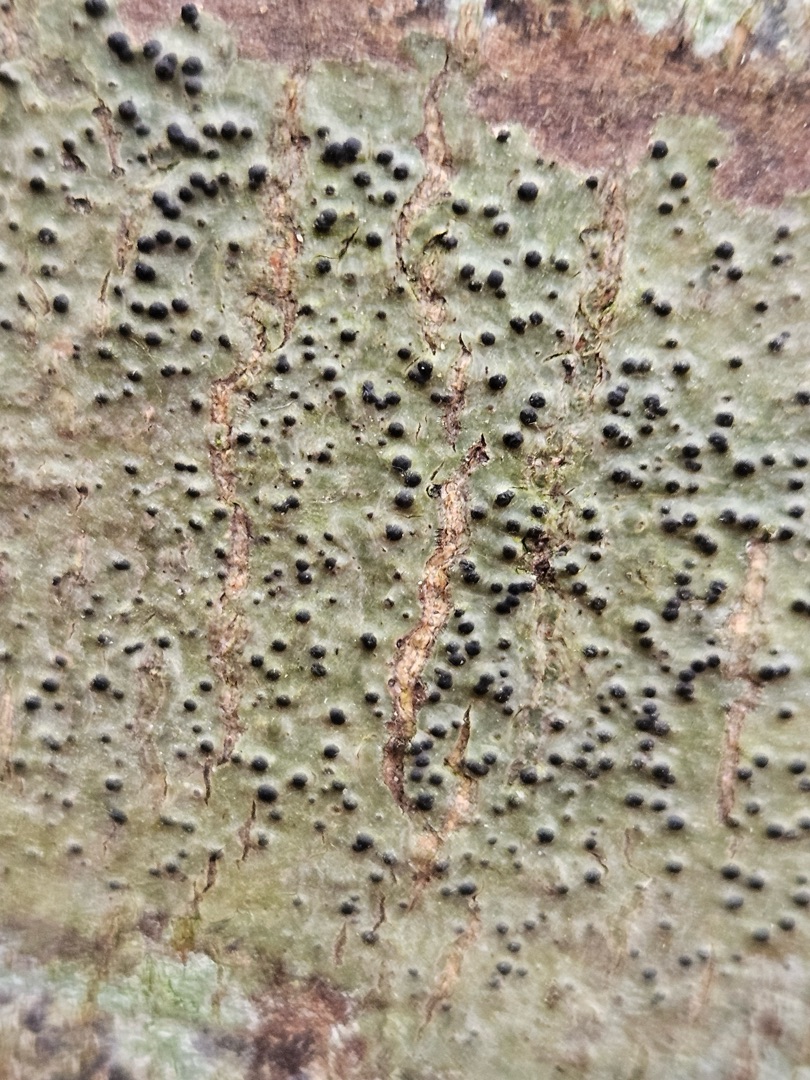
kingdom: Fungi
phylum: Ascomycota
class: Eurotiomycetes
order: Pyrenulales
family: Pyrenulaceae
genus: Pyrenula
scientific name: Pyrenula nitida
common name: Glinsende kernelav
